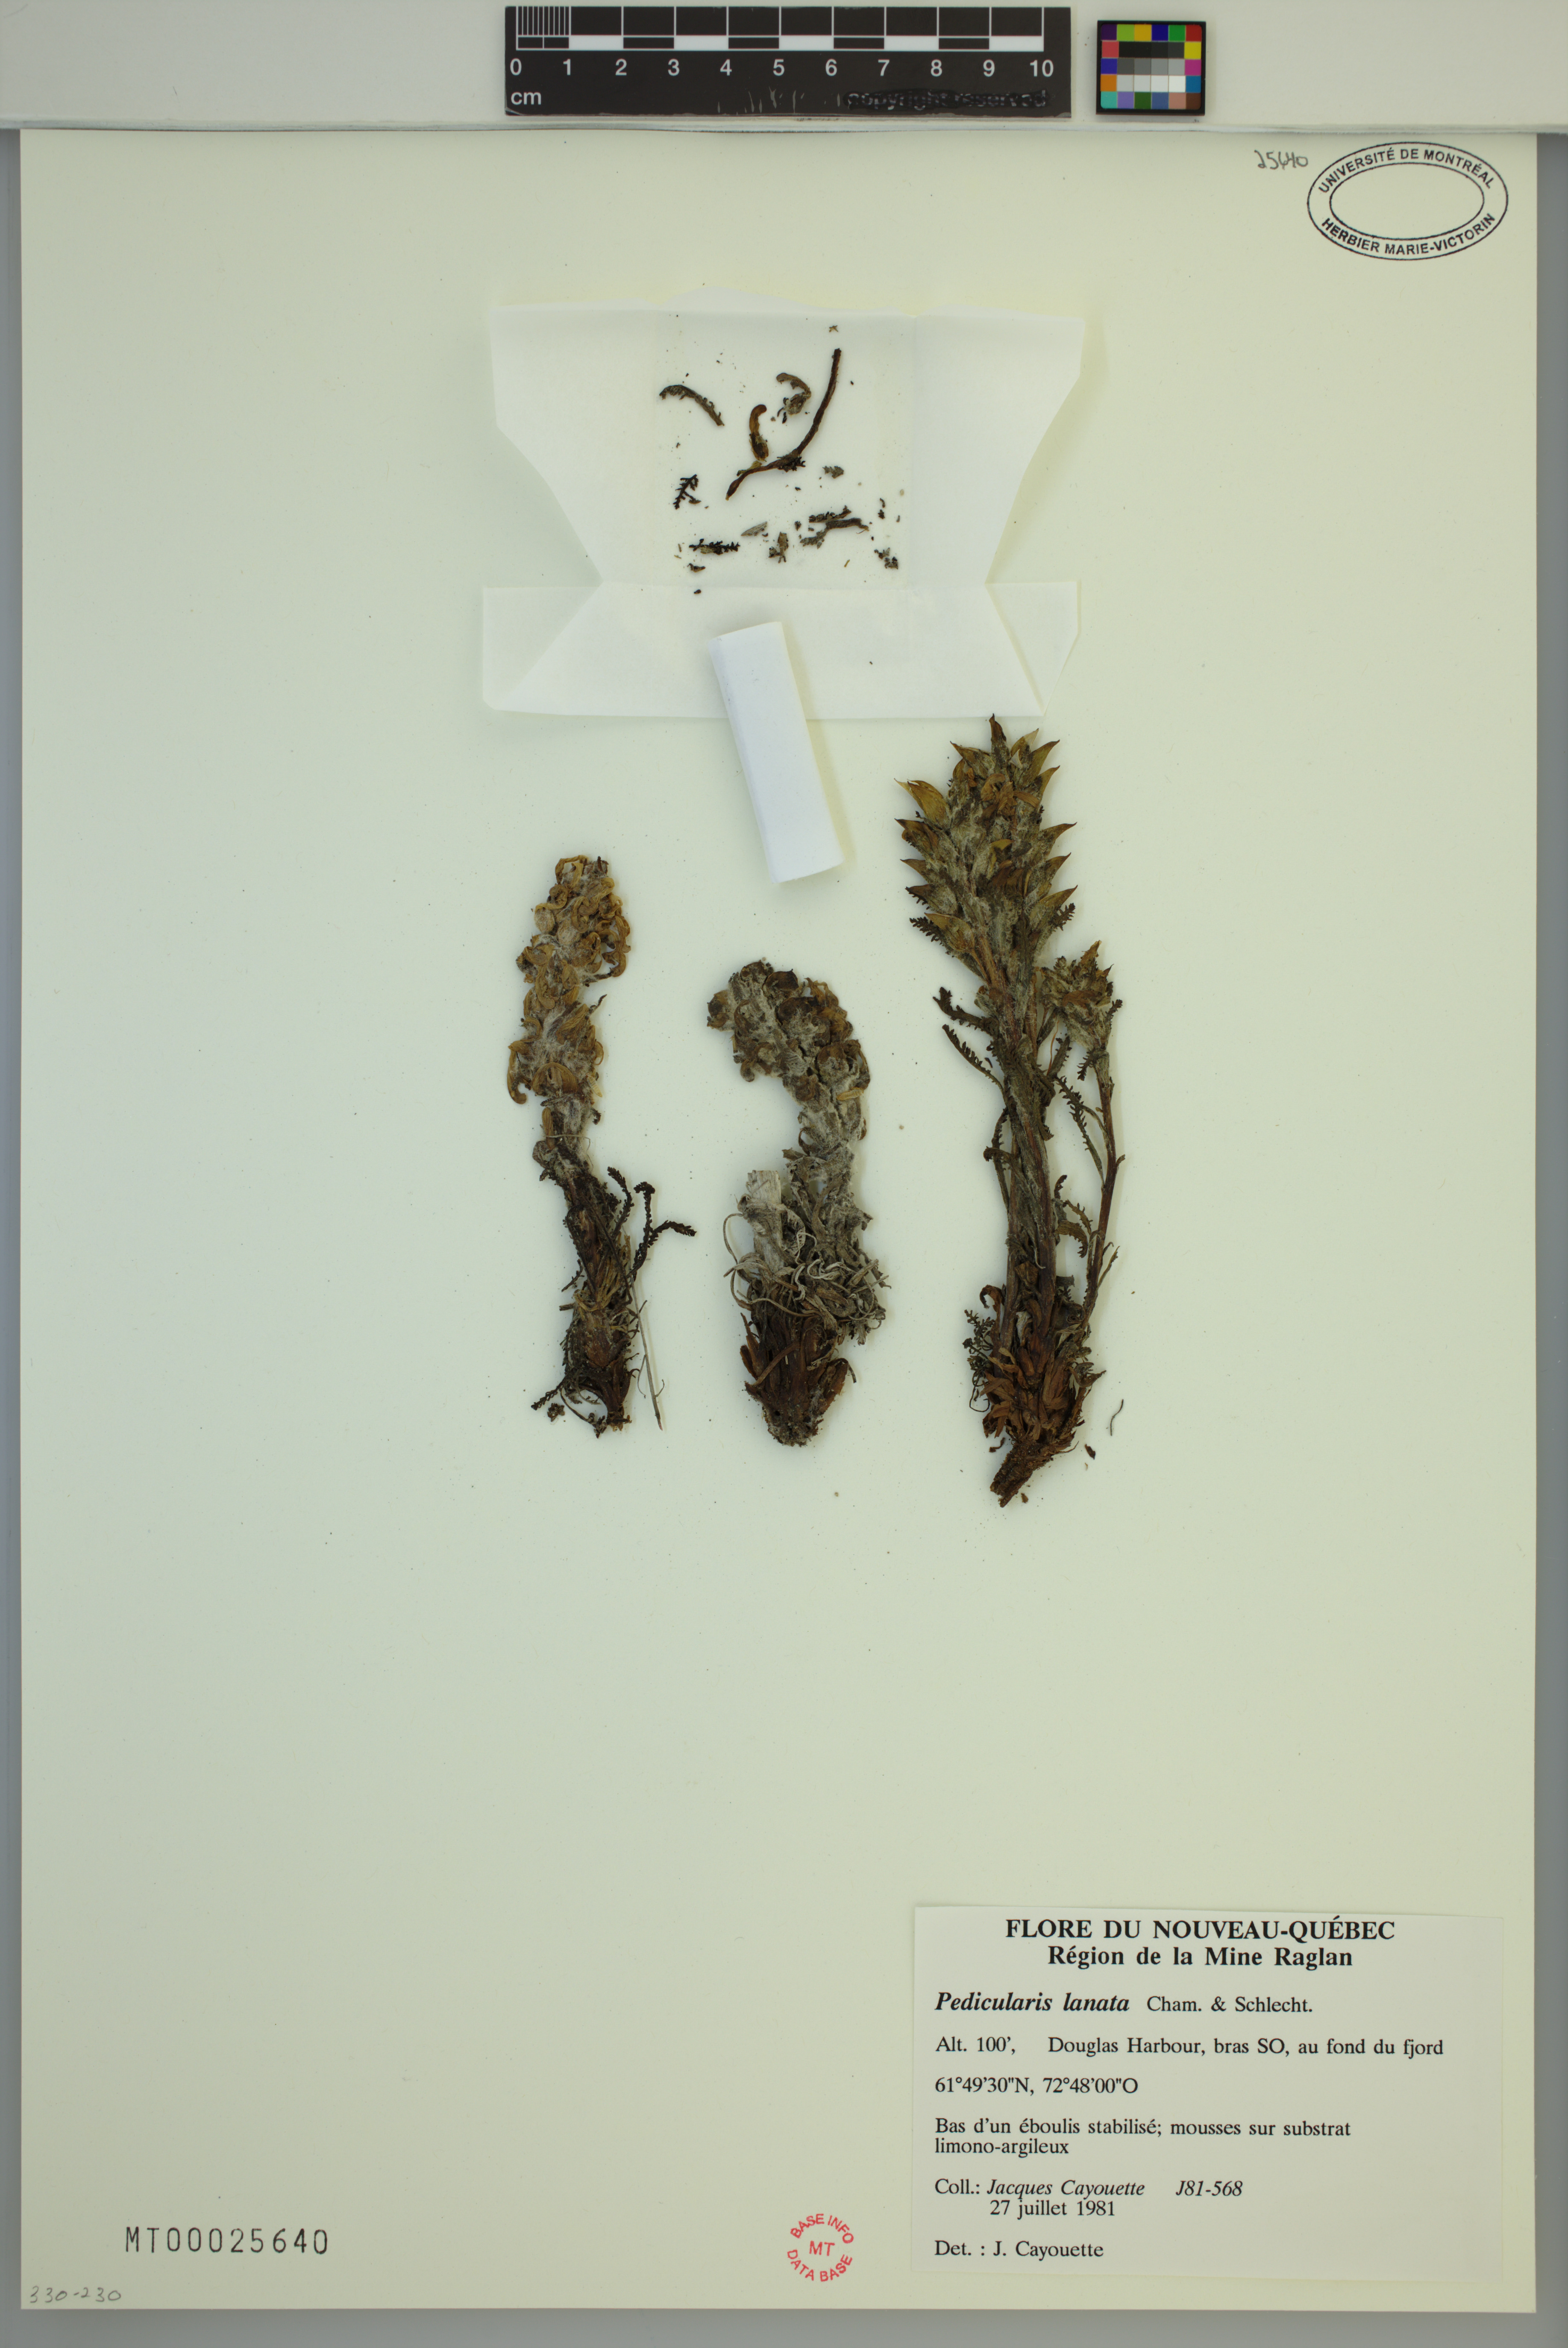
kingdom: Plantae
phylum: Tracheophyta
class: Magnoliopsida
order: Lamiales
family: Orobanchaceae
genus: Pedicularis
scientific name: Pedicularis lanata
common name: Woolly lousewort
